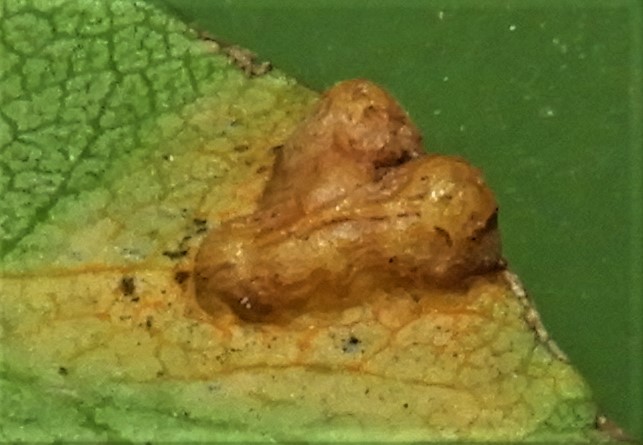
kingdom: Fungi
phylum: Basidiomycota
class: Pucciniomycetes
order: Pucciniales
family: Gymnosporangiaceae
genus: Gymnosporangium
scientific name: Gymnosporangium sabinae
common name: pæregitter-bævrerust
